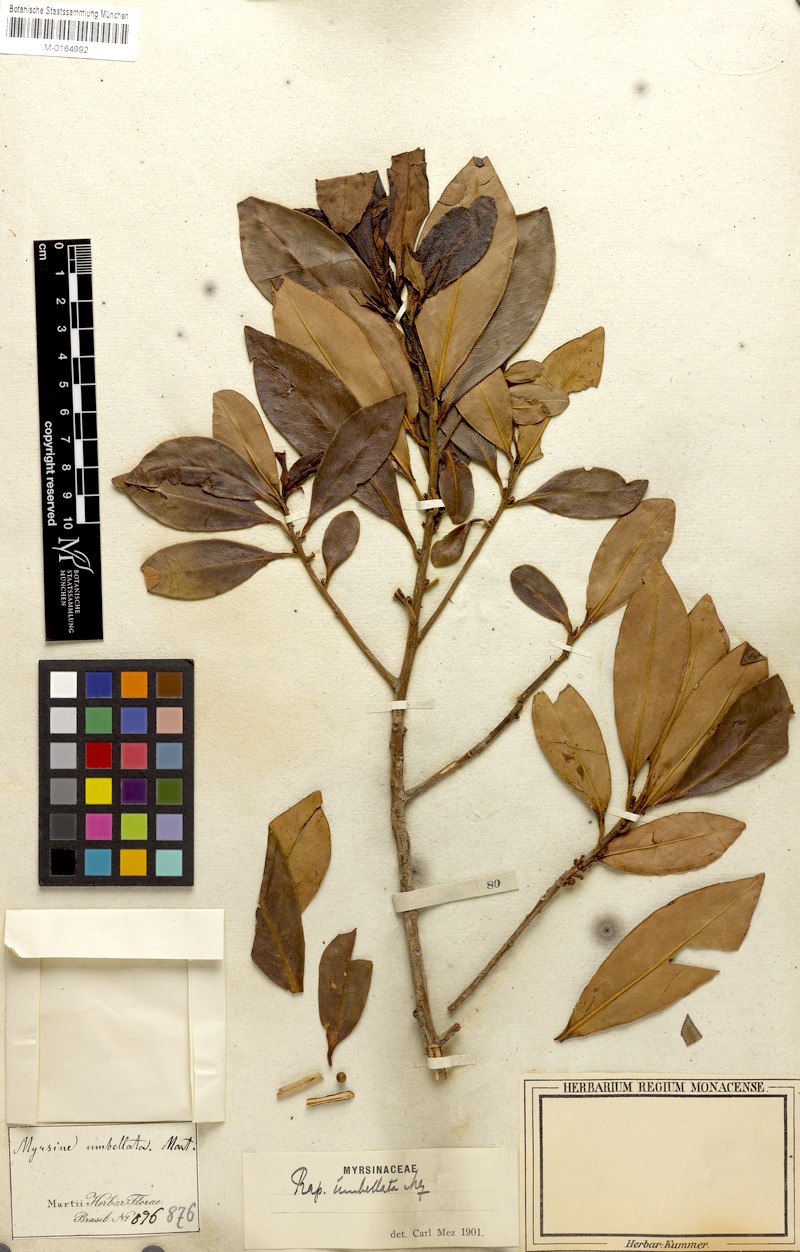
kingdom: Plantae
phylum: Tracheophyta
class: Magnoliopsida
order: Ericales
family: Primulaceae
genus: Myrsine
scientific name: Myrsine umbellata
